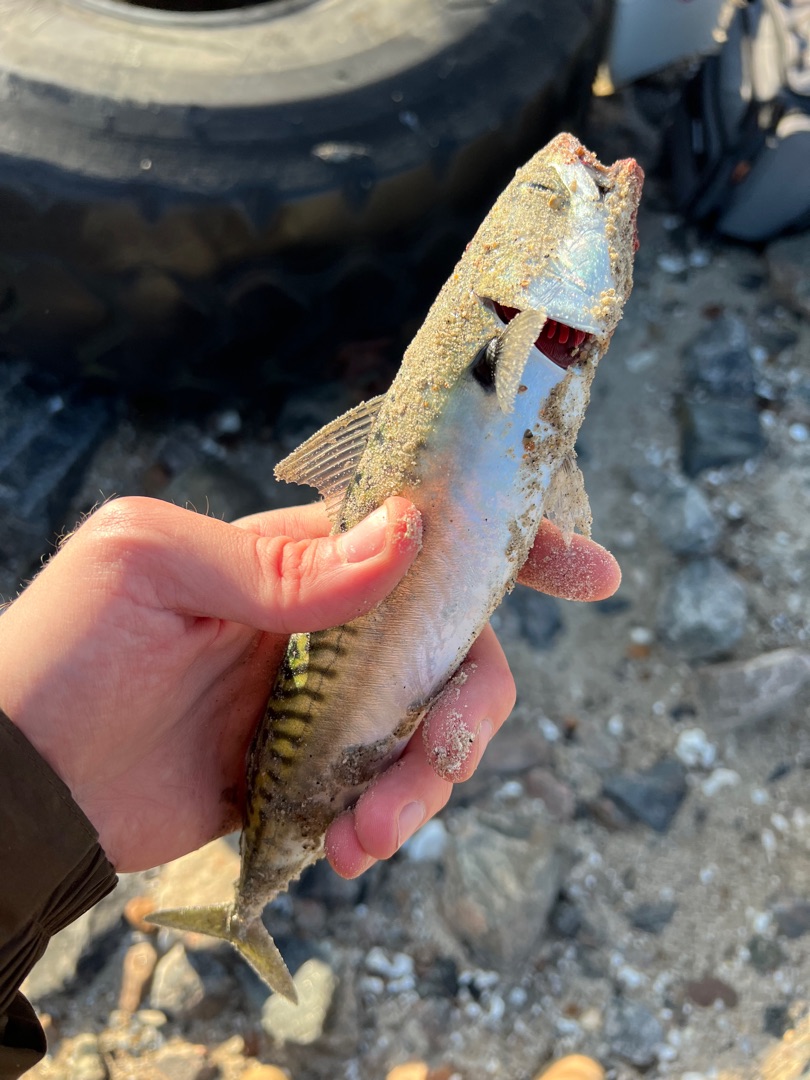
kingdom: Animalia
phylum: Chordata
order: Perciformes
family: Scombridae
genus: Scomber
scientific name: Scomber scombrus
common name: Makrel
